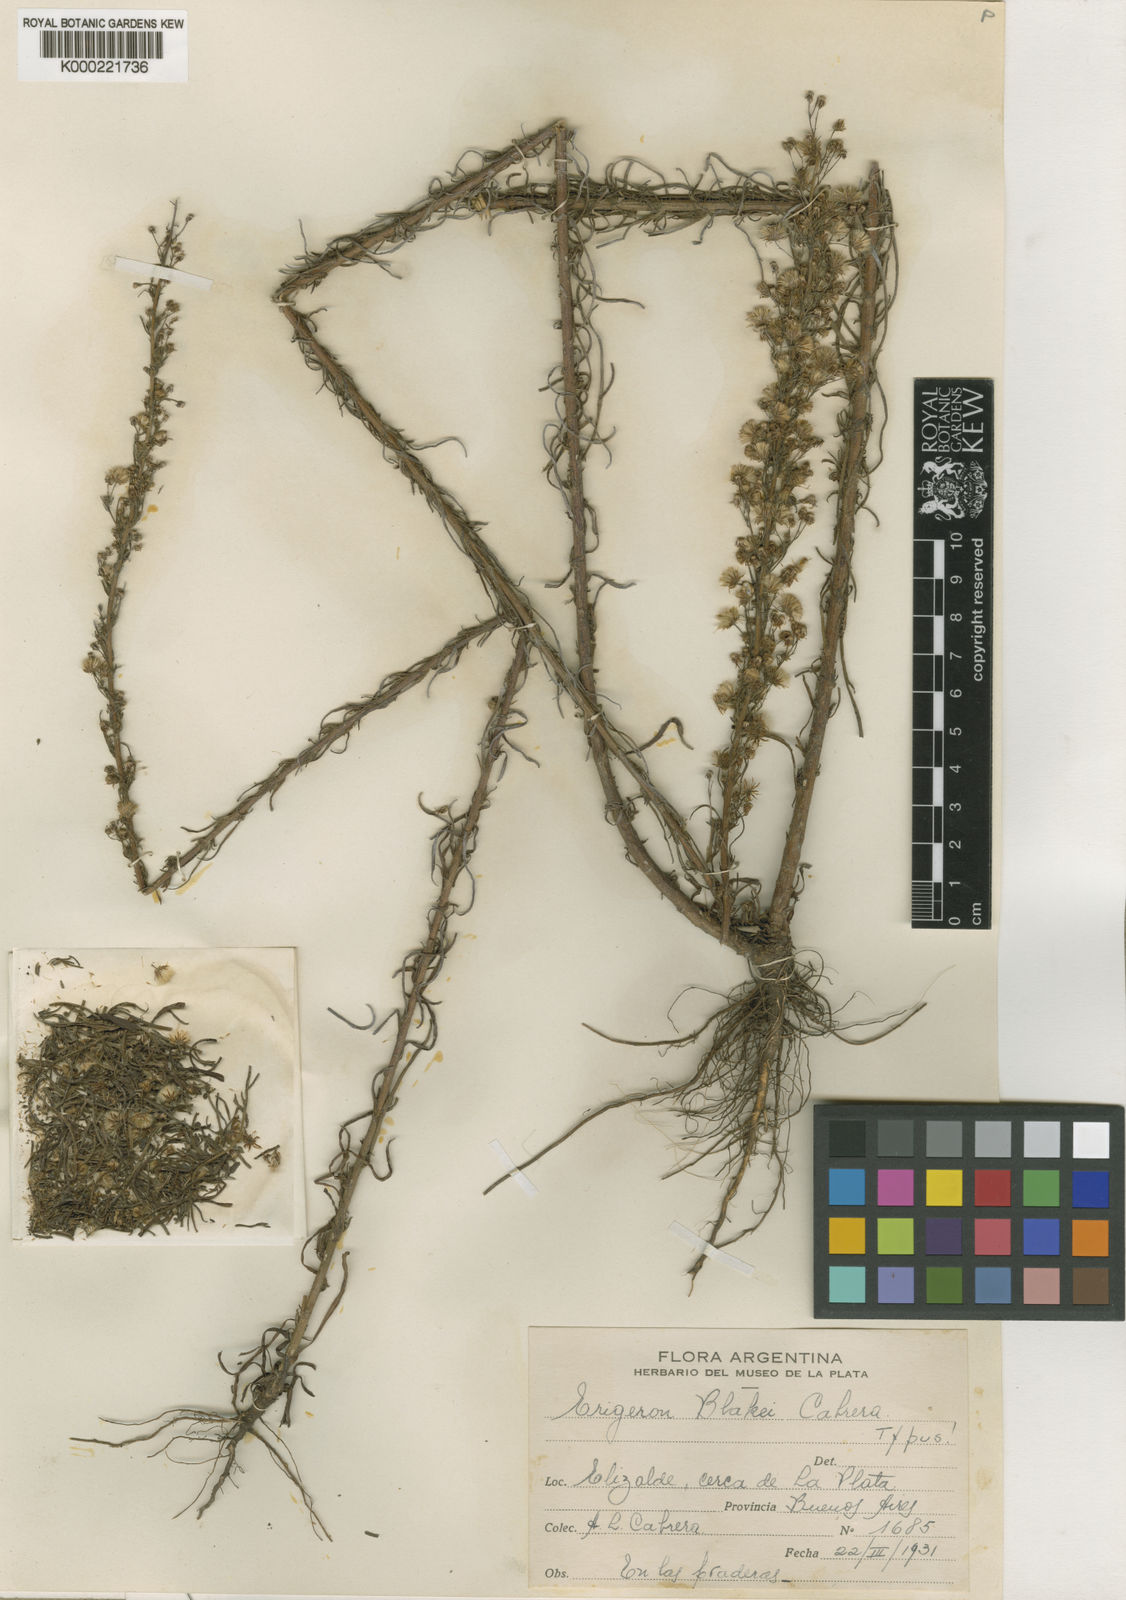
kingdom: Plantae
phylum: Tracheophyta
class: Magnoliopsida
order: Asterales
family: Asteraceae
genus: Erigeron
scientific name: Erigeron blakei
